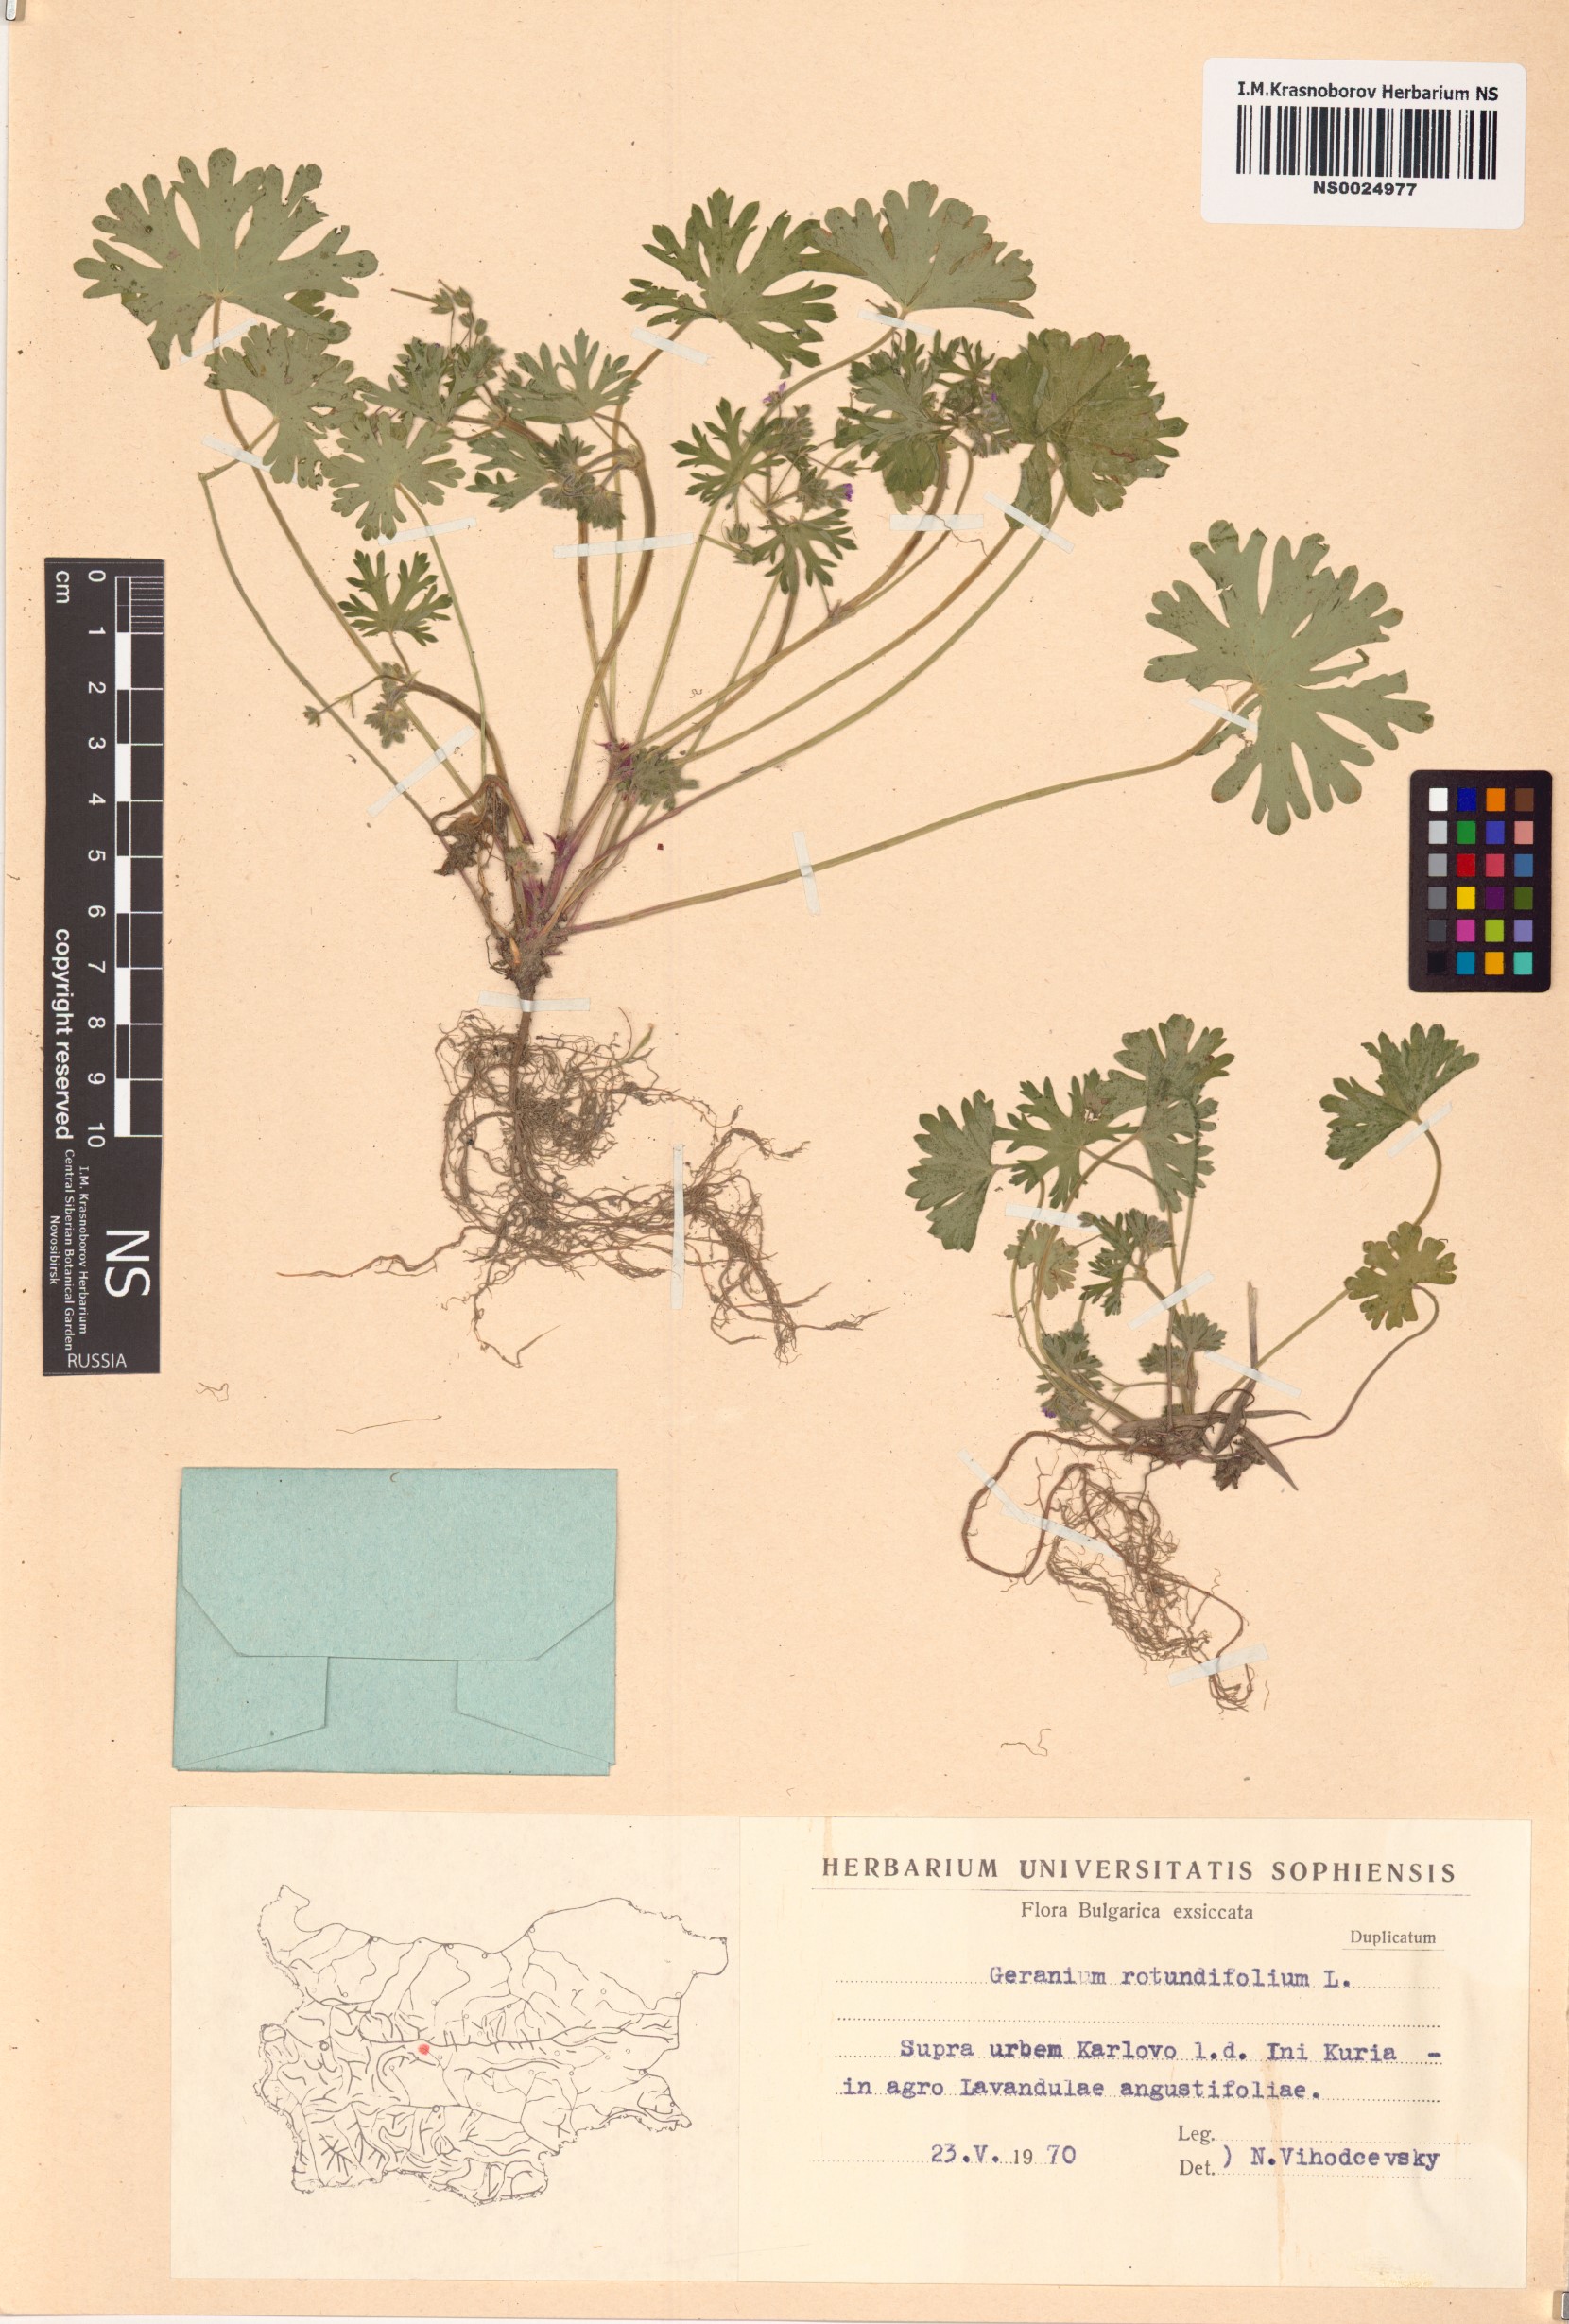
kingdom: Plantae
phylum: Tracheophyta
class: Magnoliopsida
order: Geraniales
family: Geraniaceae
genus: Geranium
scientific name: Geranium rotundifolium
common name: Round-leaved crane's-bill
